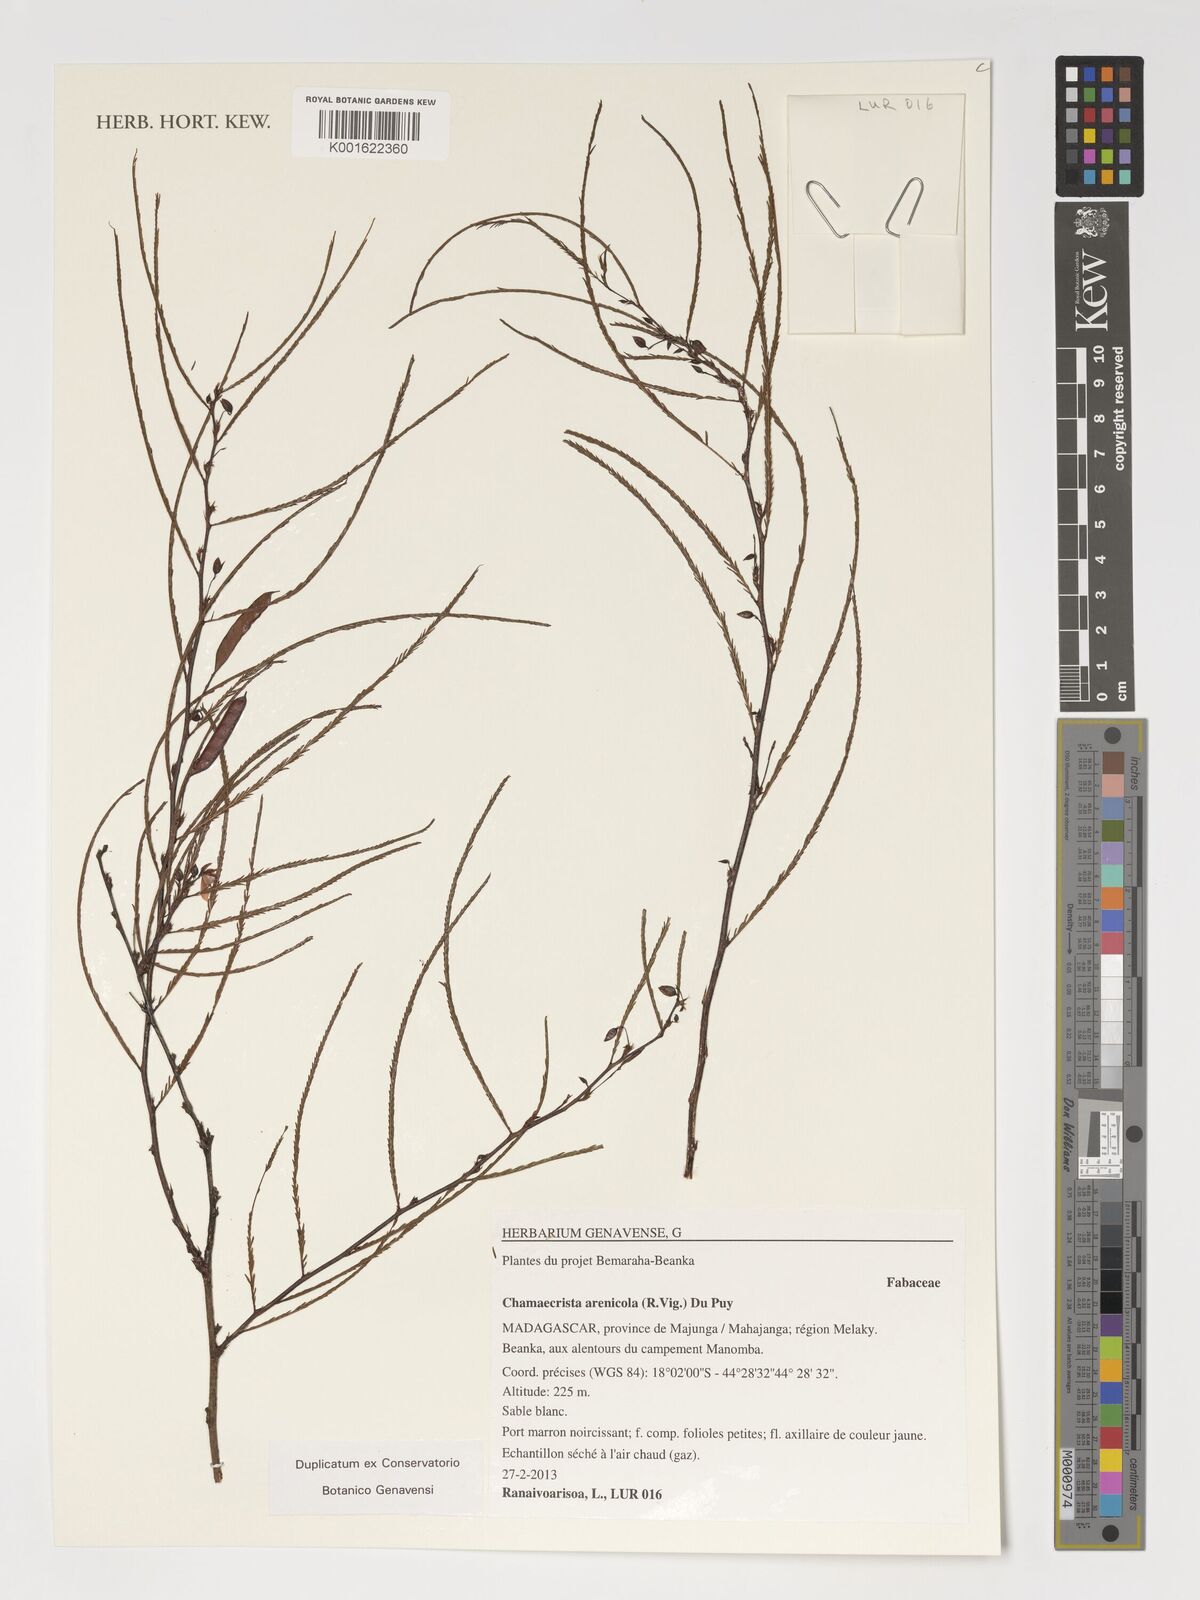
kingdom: Plantae
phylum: Tracheophyta
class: Magnoliopsida
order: Fabales
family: Fabaceae
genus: Chamaecrista
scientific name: Chamaecrista arenicola
